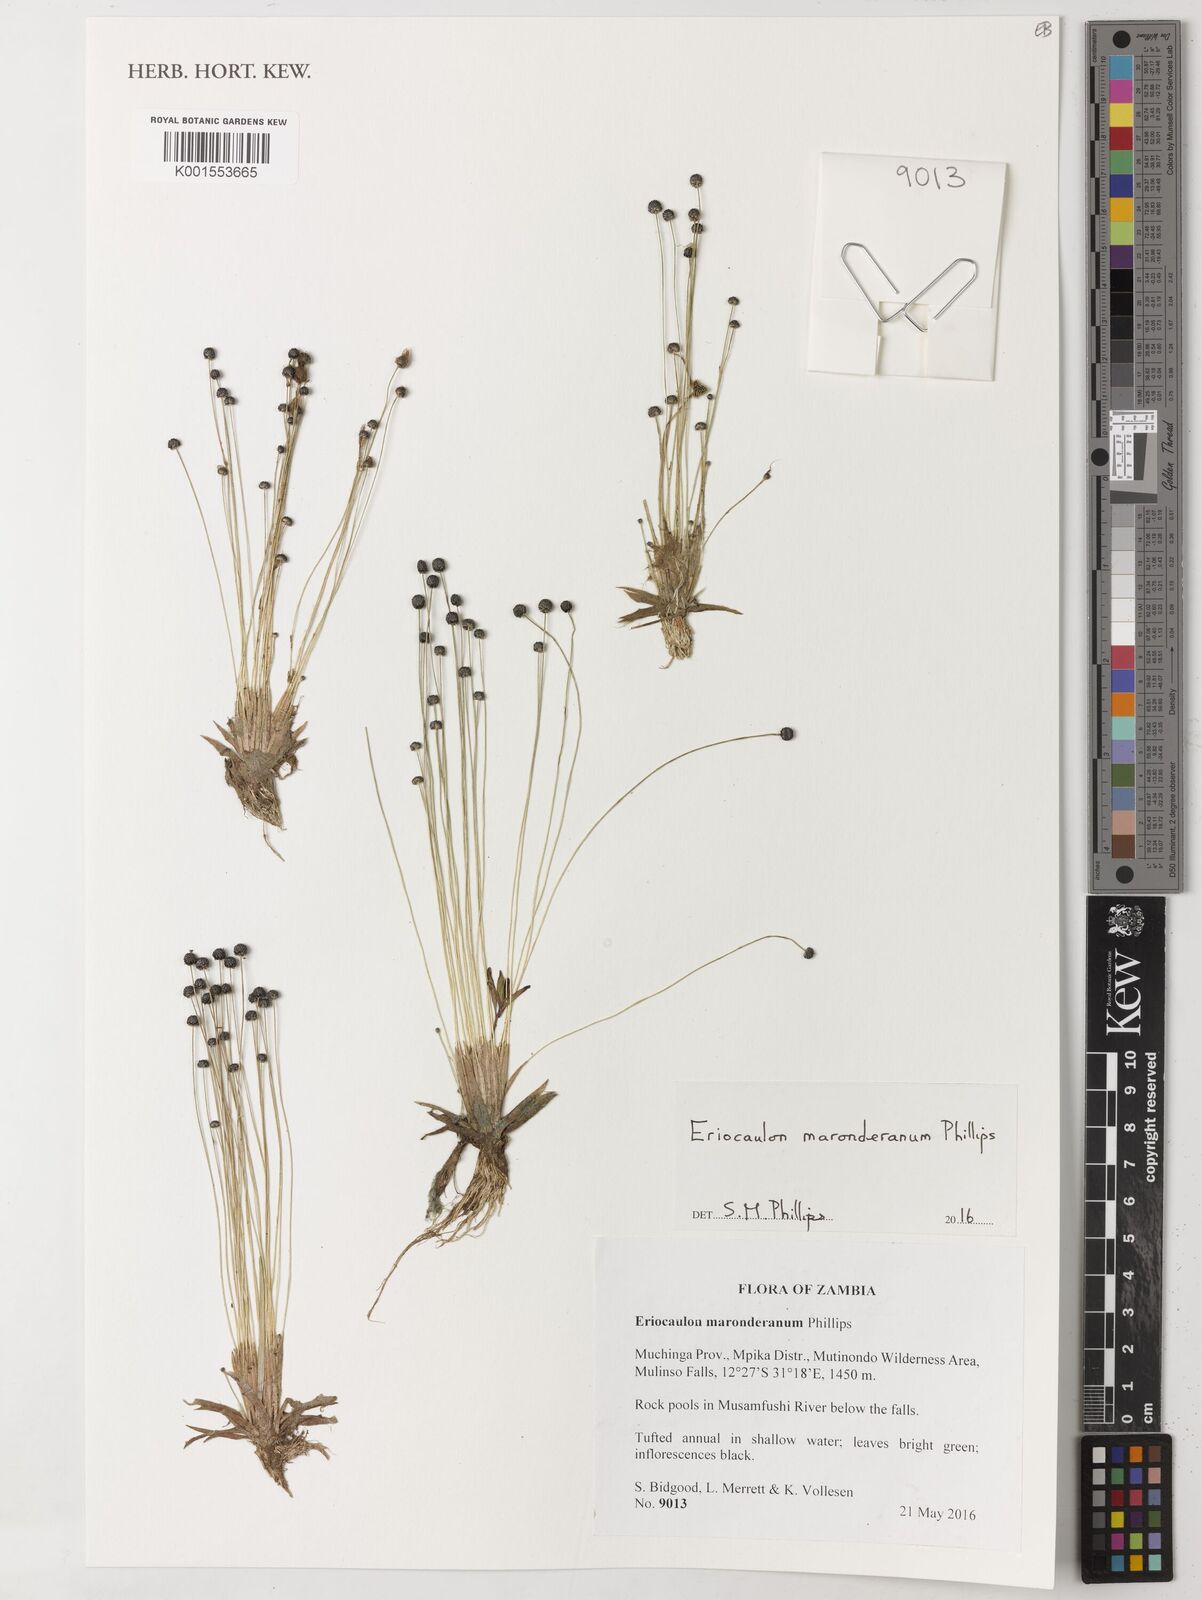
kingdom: Plantae
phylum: Tracheophyta
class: Liliopsida
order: Poales
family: Eriocaulaceae
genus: Eriocaulon
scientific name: Eriocaulon maronderanum
